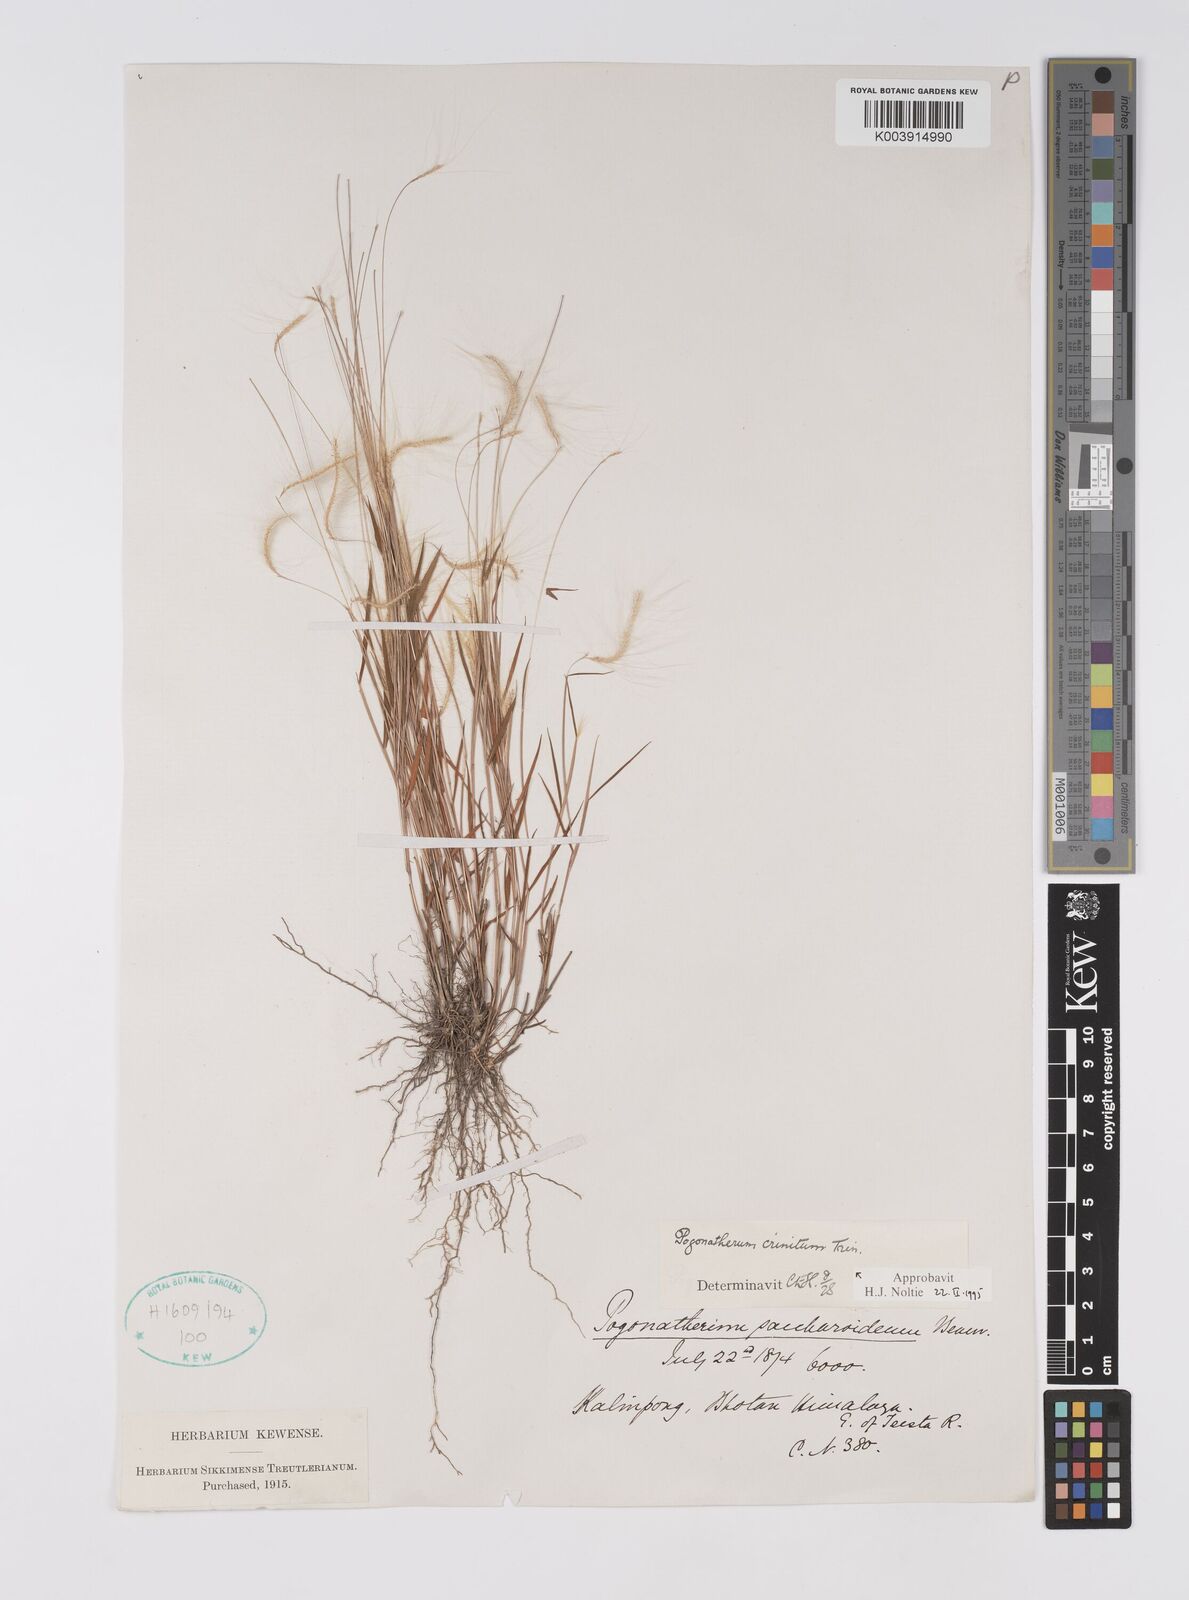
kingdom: Plantae
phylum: Tracheophyta
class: Liliopsida
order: Poales
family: Poaceae
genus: Pogonatherum
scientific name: Pogonatherum crinitum
